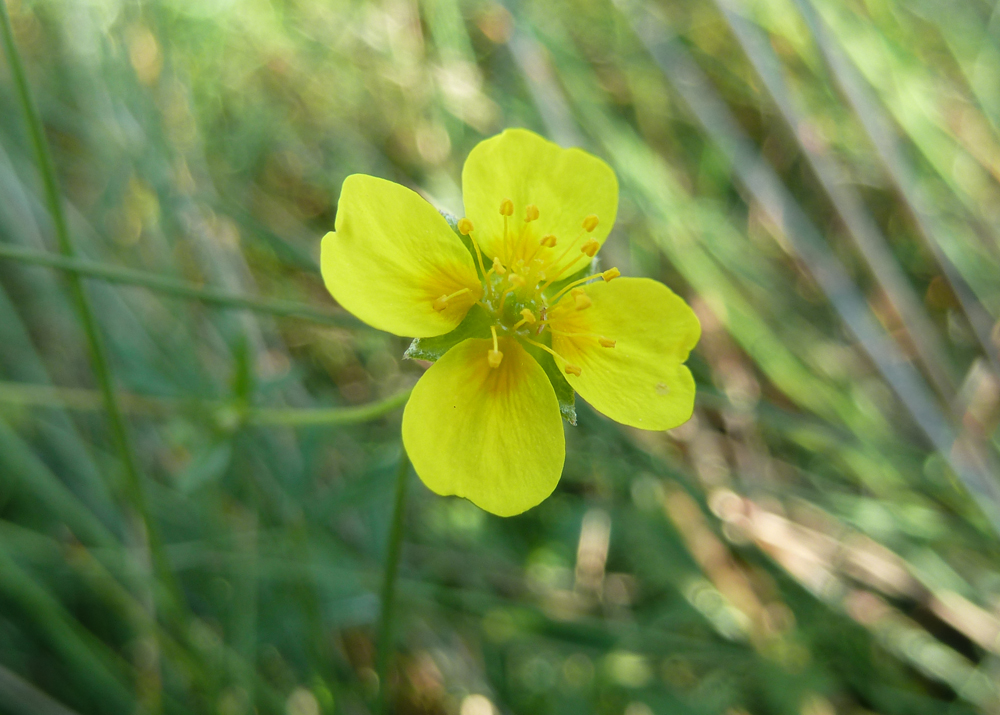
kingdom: Plantae
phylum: Tracheophyta
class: Magnoliopsida
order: Rosales
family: Rosaceae
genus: Potentilla
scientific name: Potentilla anglica
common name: Trailing tormentil
